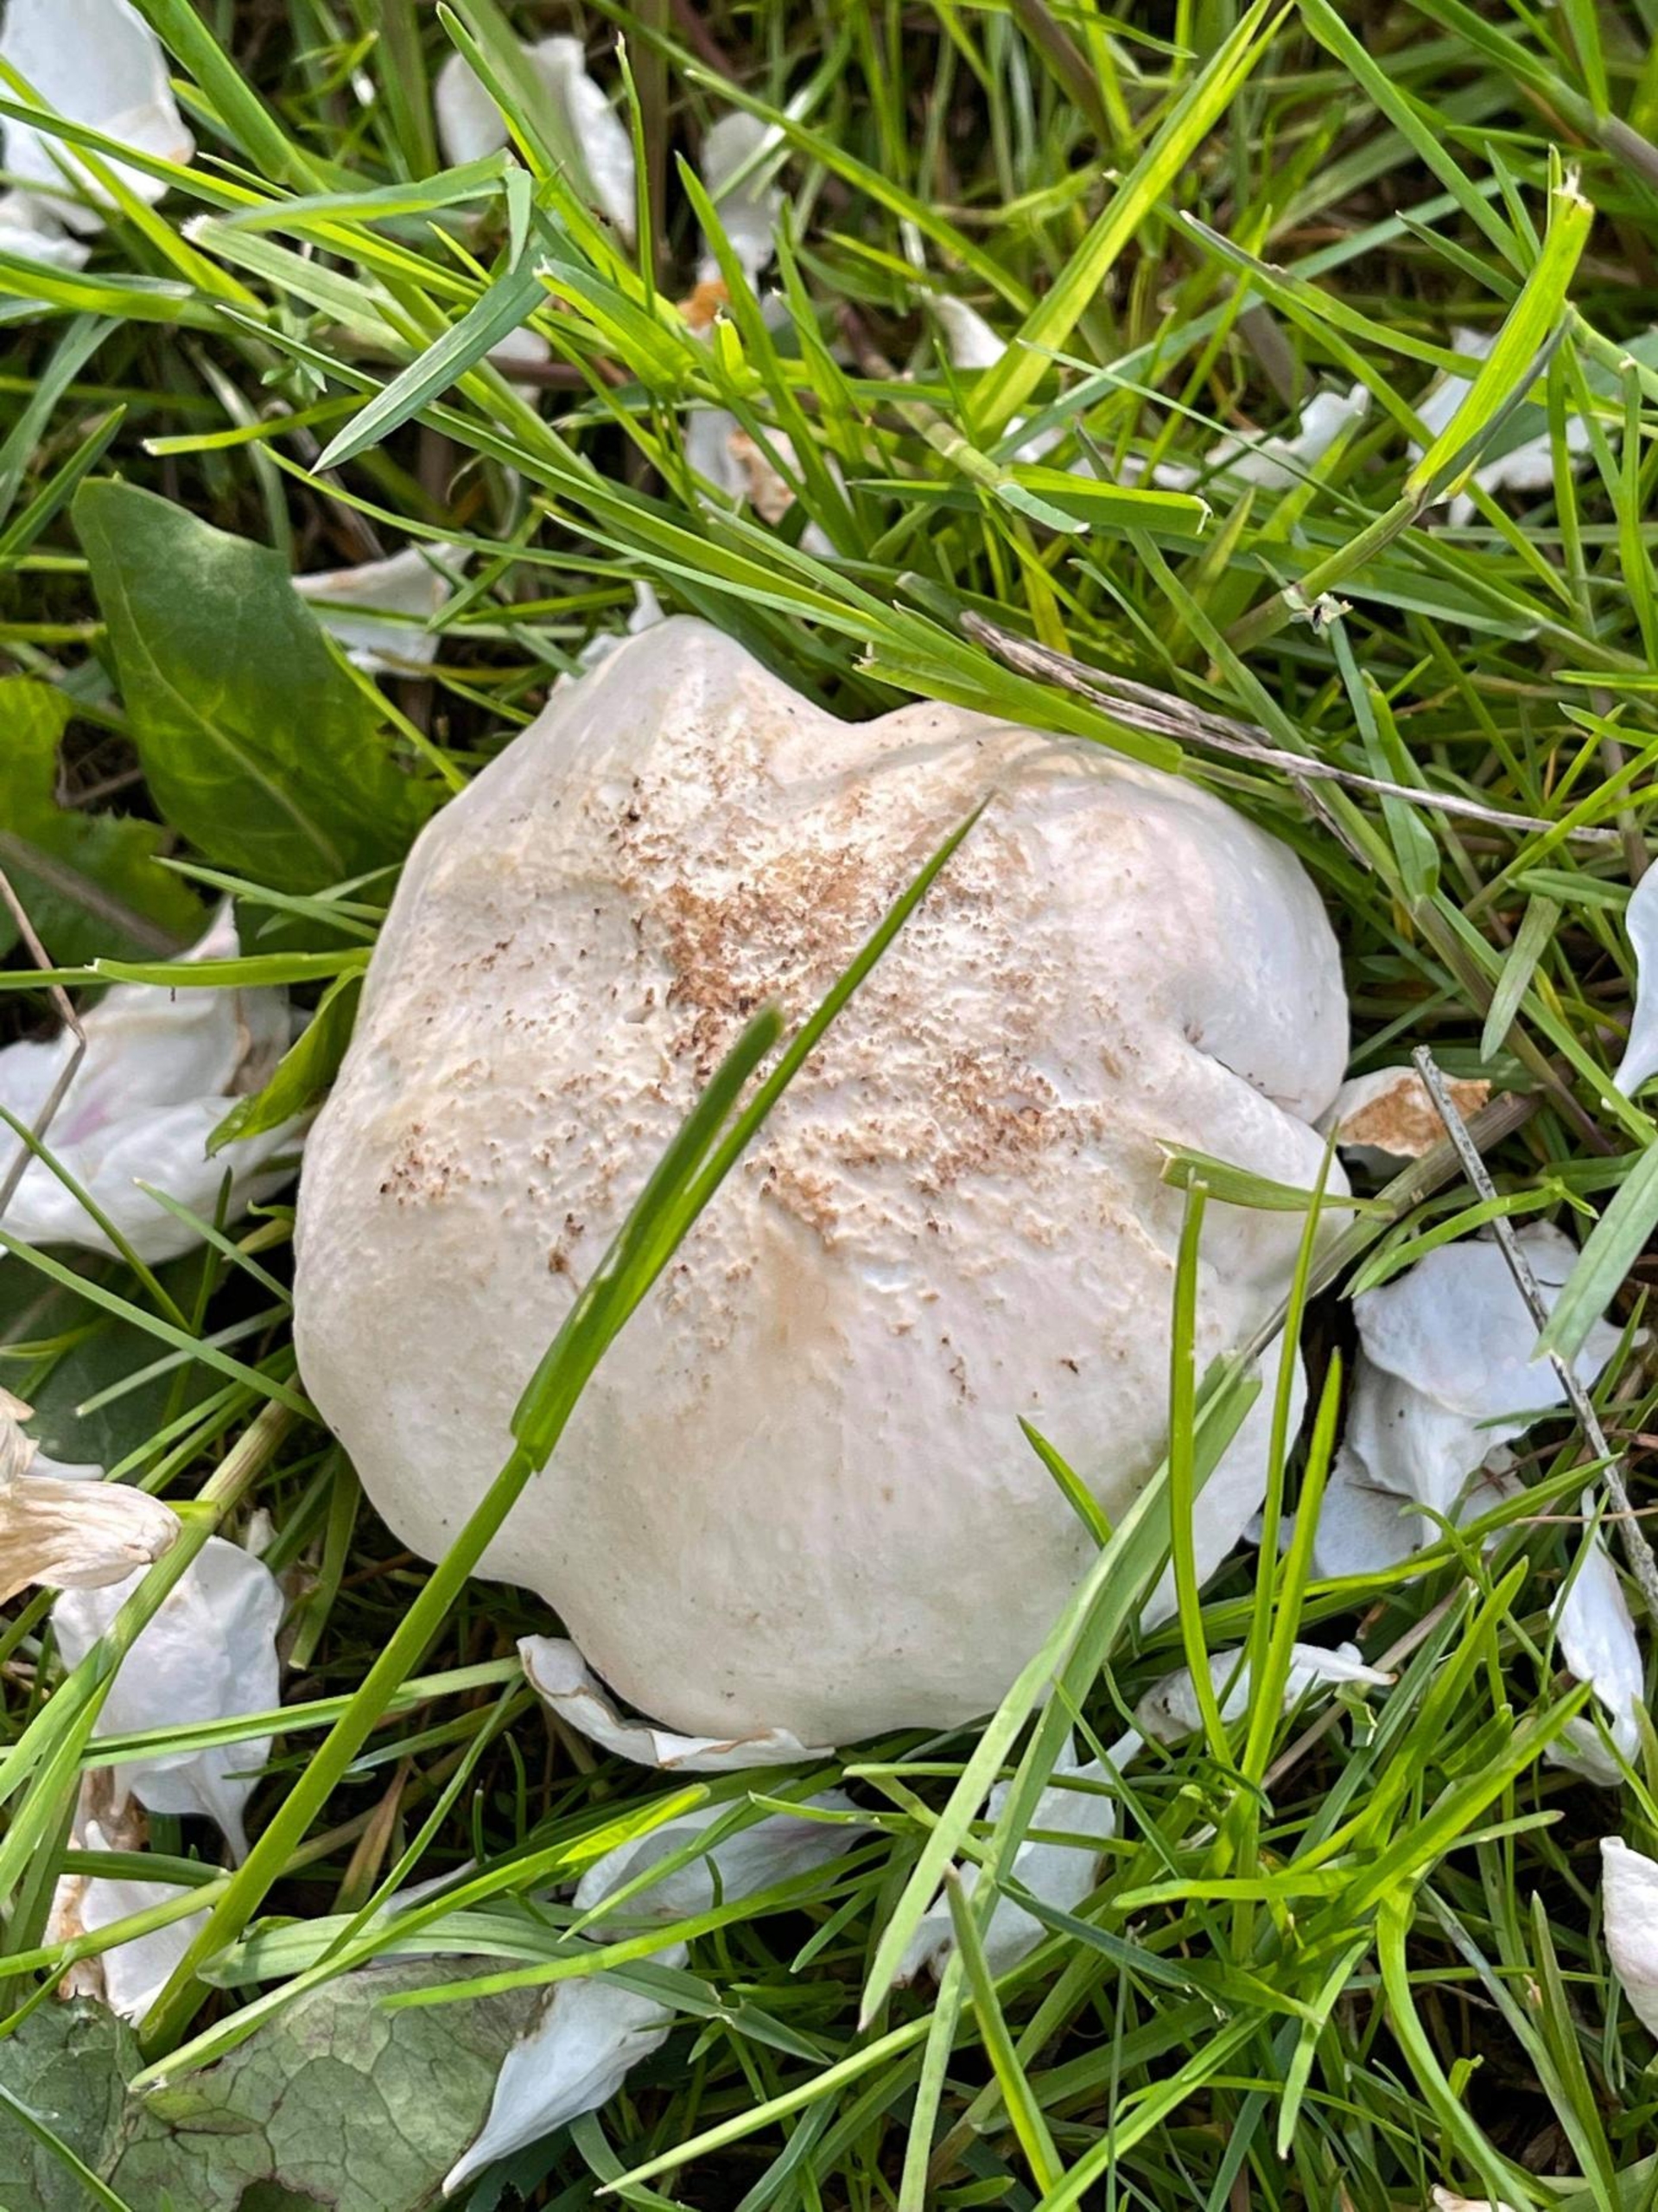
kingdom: Fungi
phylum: Basidiomycota
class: Agaricomycetes
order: Agaricales
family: Lyophyllaceae
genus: Calocybe
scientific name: Calocybe gambosa
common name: Vårmusseron
